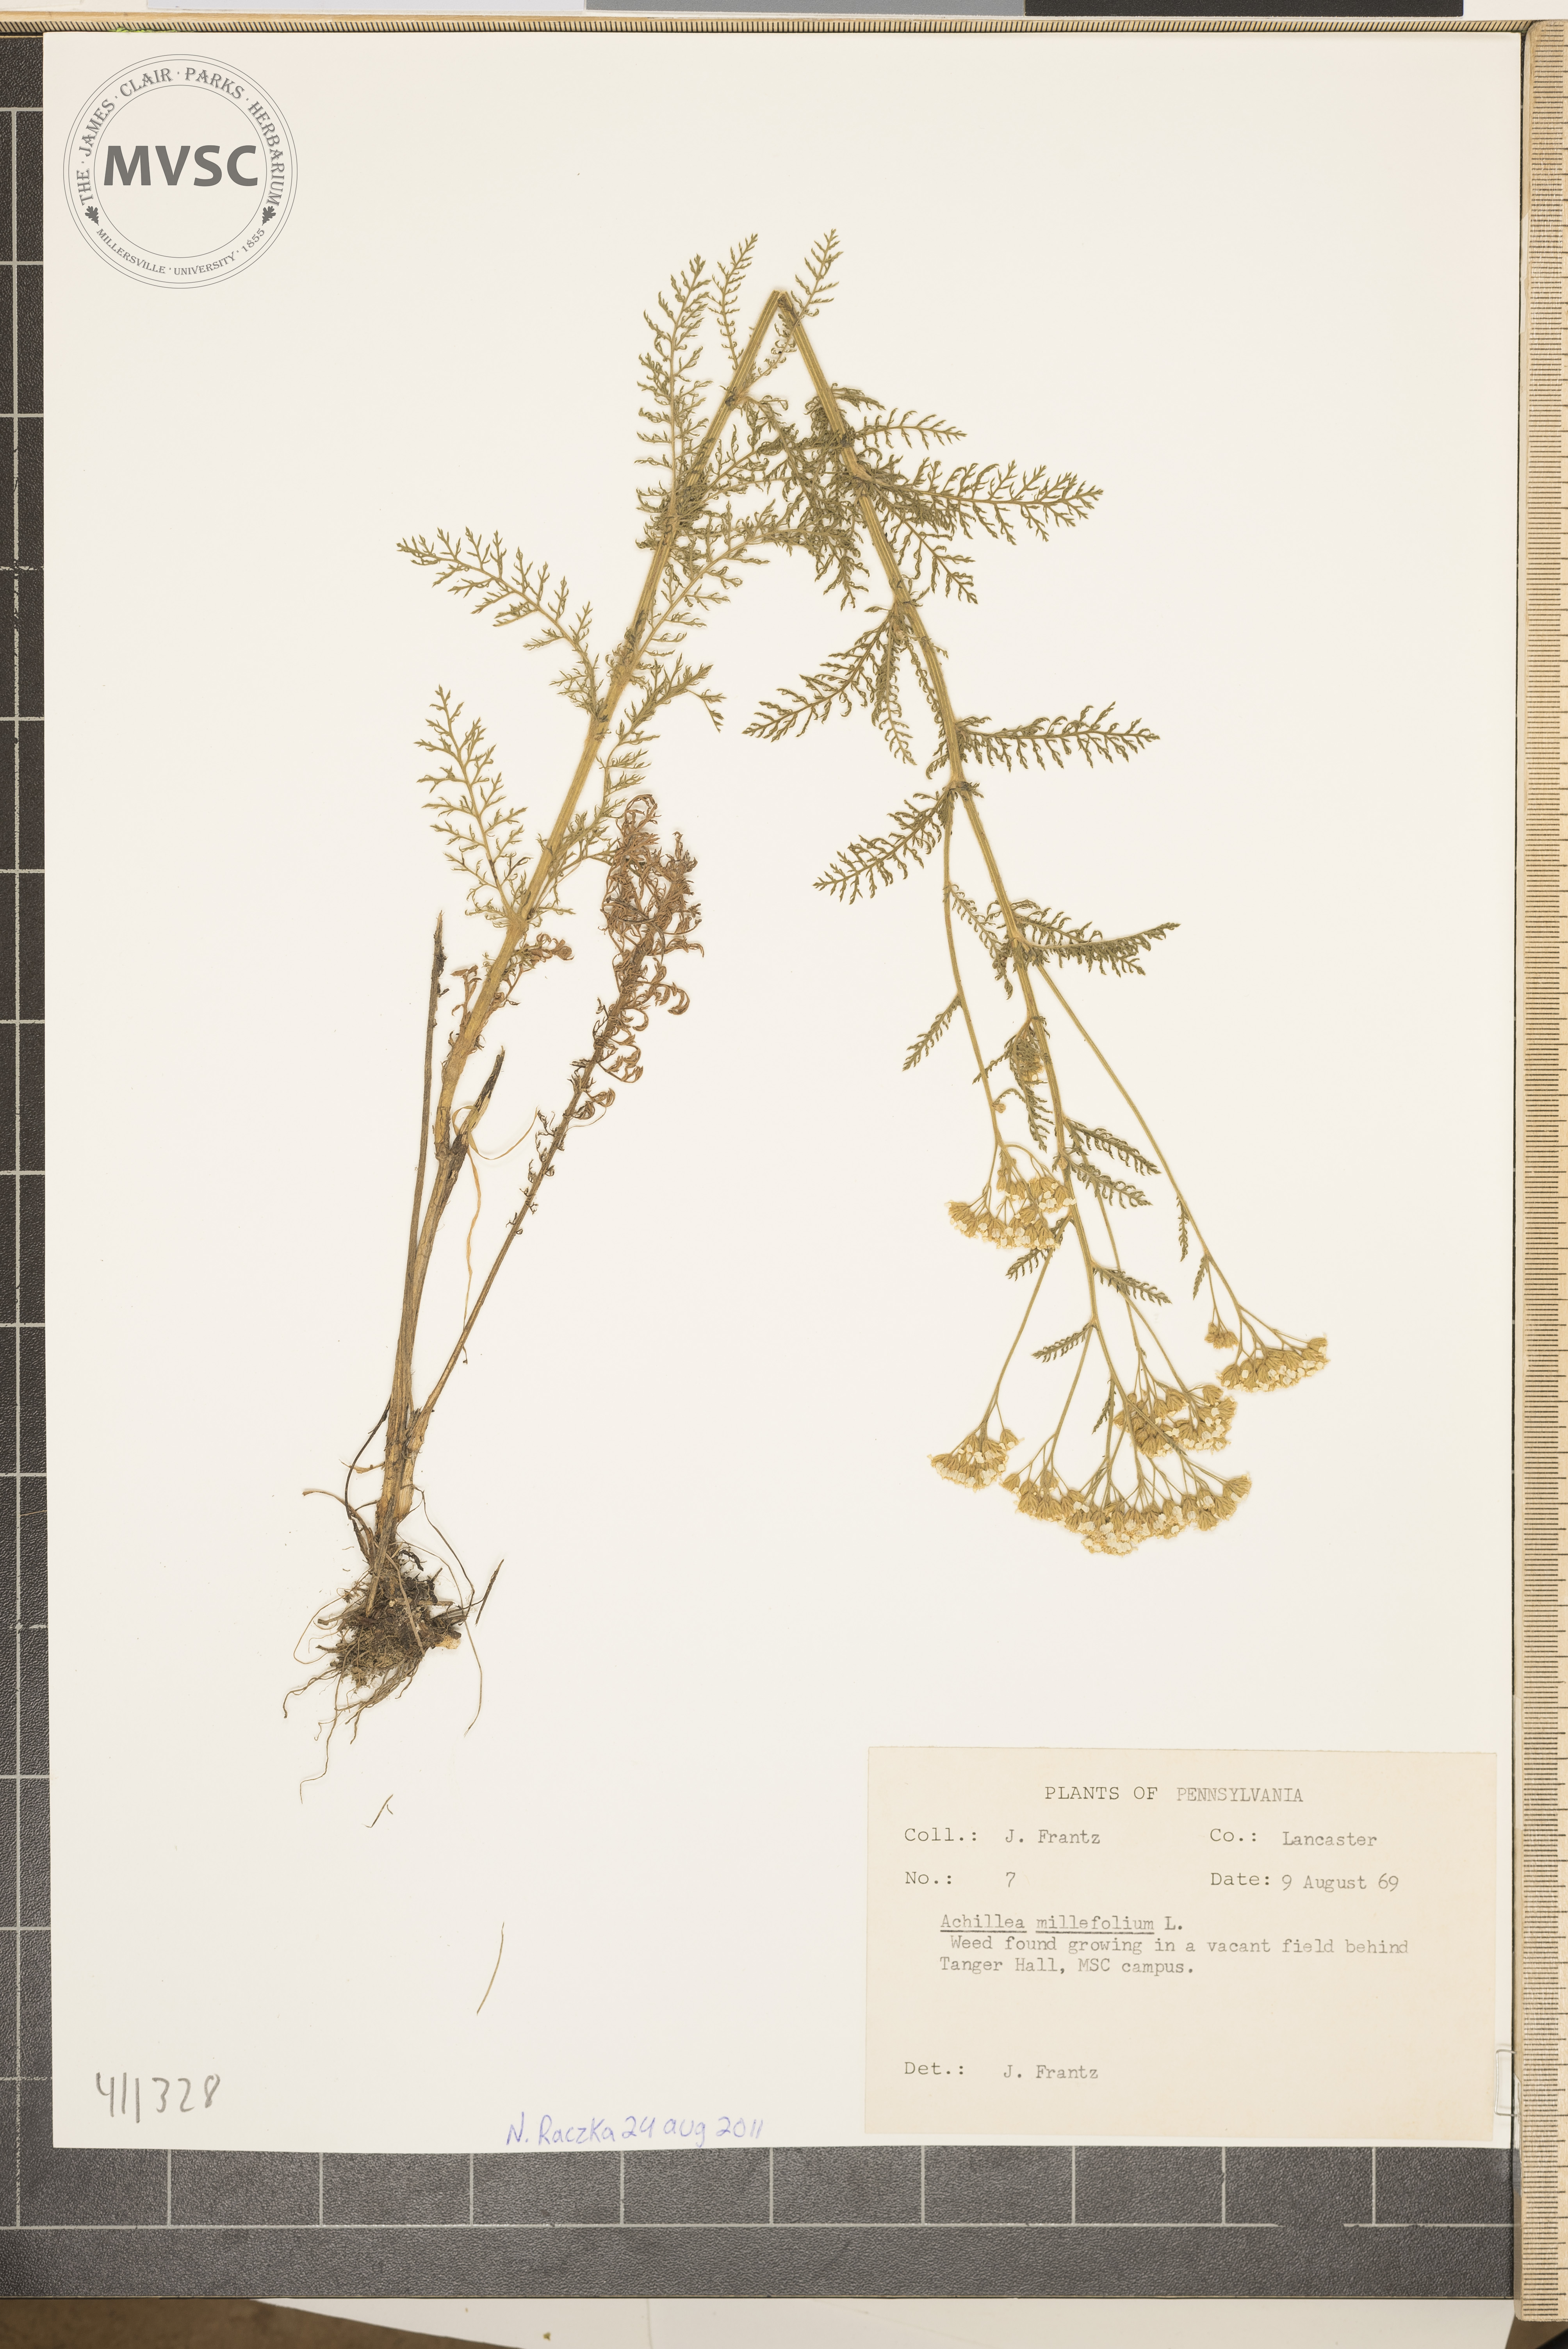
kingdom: Plantae
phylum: Tracheophyta
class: Magnoliopsida
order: Asterales
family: Asteraceae
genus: Achillea
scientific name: Achillea millefolium
